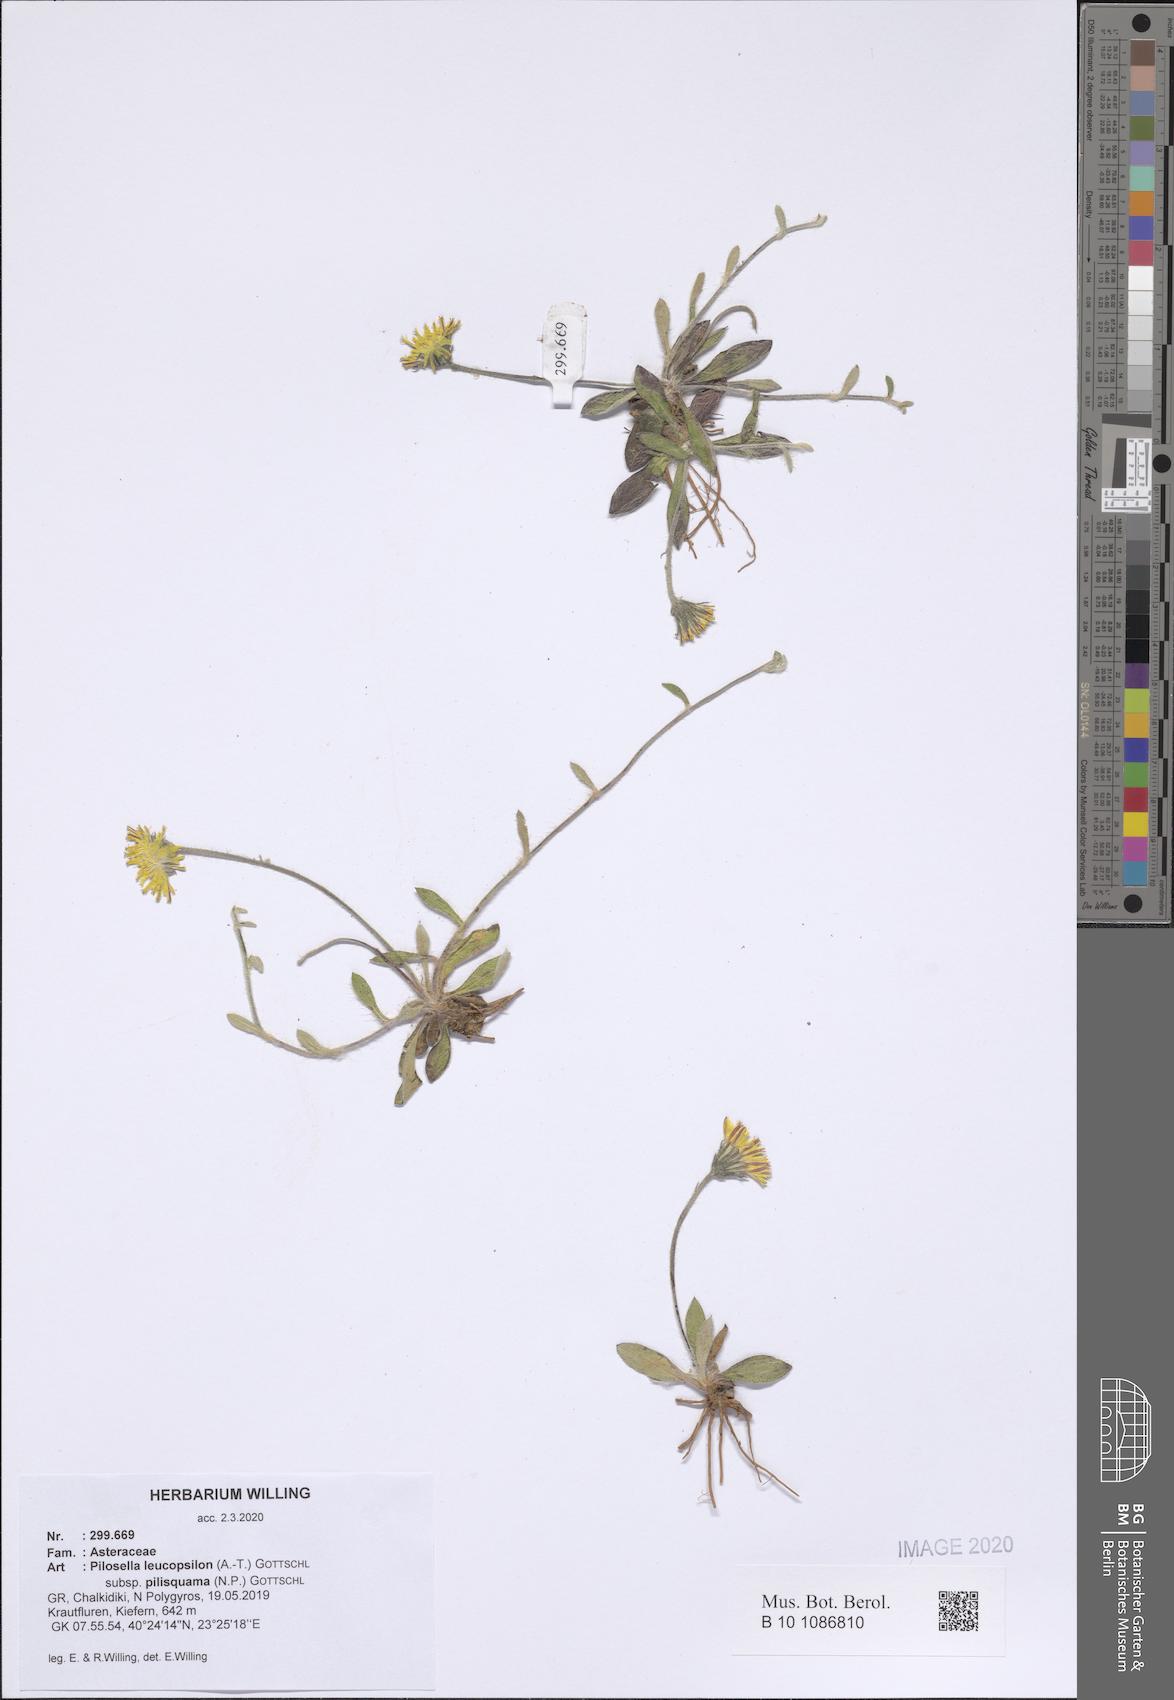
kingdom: Plantae
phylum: Tracheophyta
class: Magnoliopsida
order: Asterales
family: Asteraceae
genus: Pilosella
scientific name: Pilosella leucopsilon
